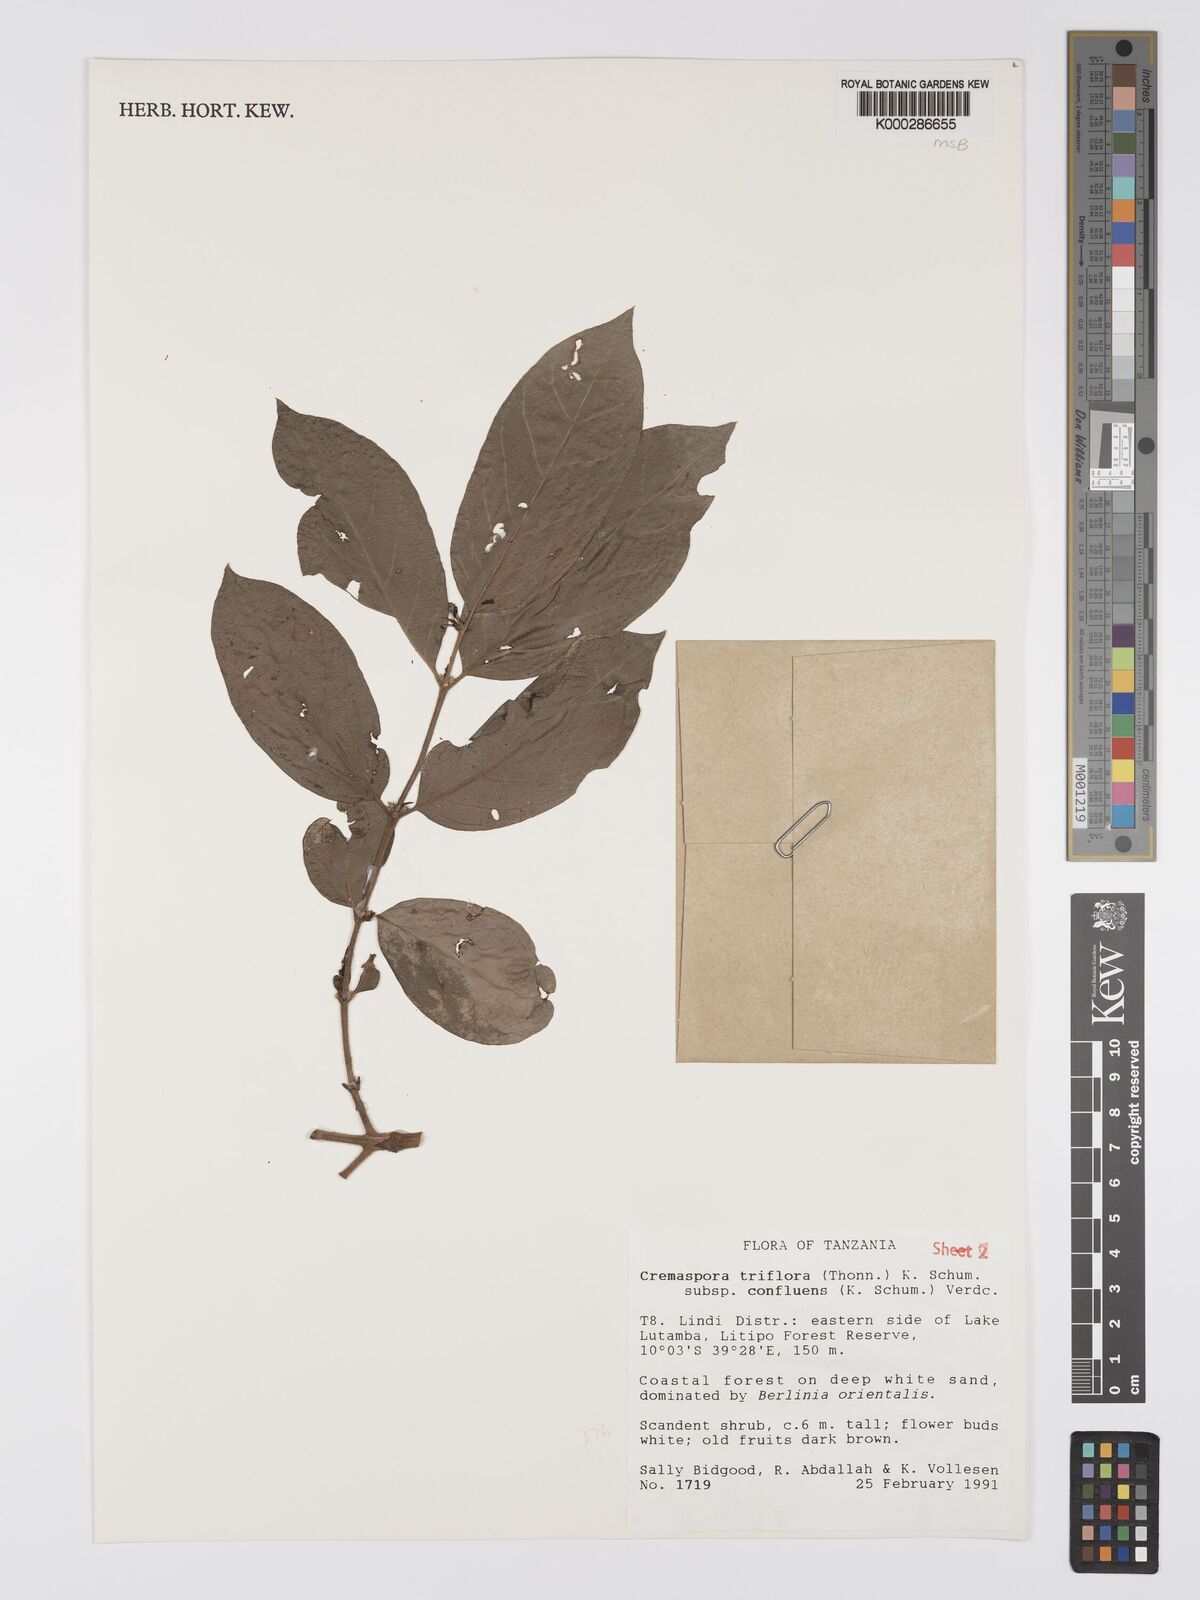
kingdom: Plantae
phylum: Tracheophyta
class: Magnoliopsida
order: Gentianales
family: Rubiaceae
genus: Cremaspora
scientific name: Cremaspora triflora
